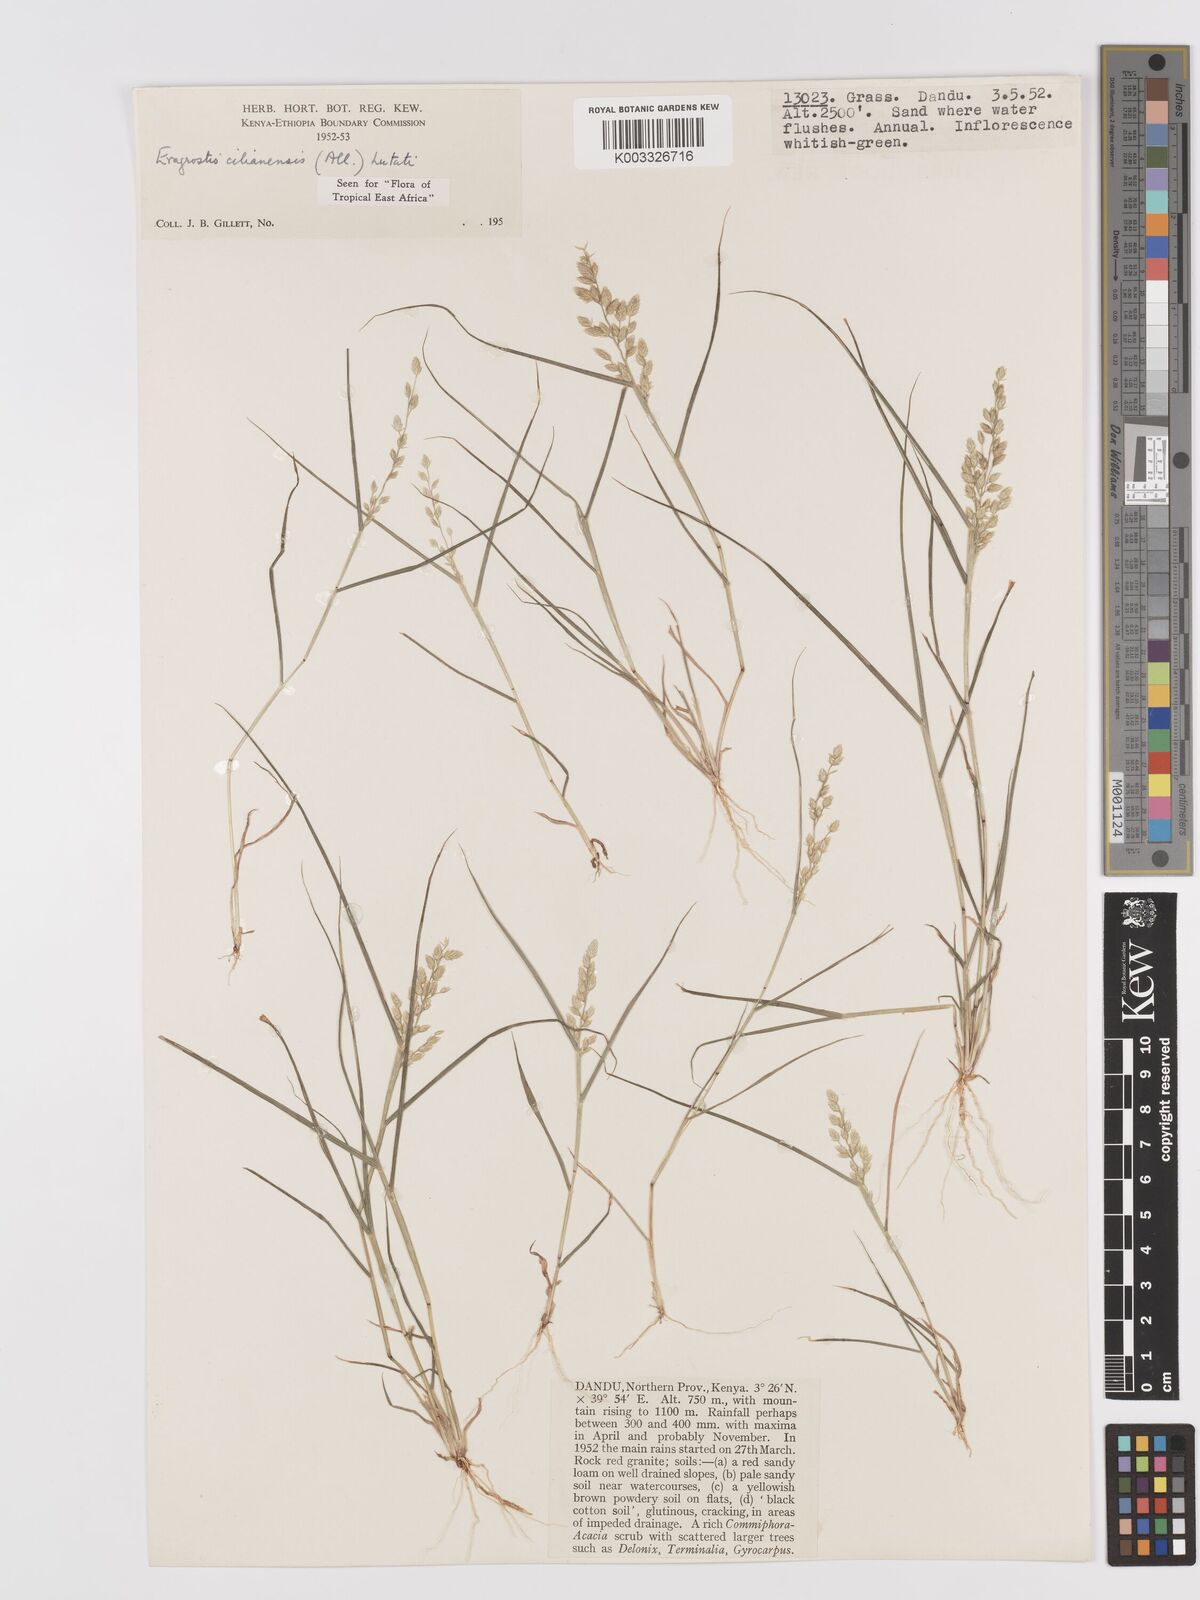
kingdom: Plantae
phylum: Tracheophyta
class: Liliopsida
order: Poales
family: Poaceae
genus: Eragrostis
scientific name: Eragrostis cilianensis
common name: Stinkgrass
